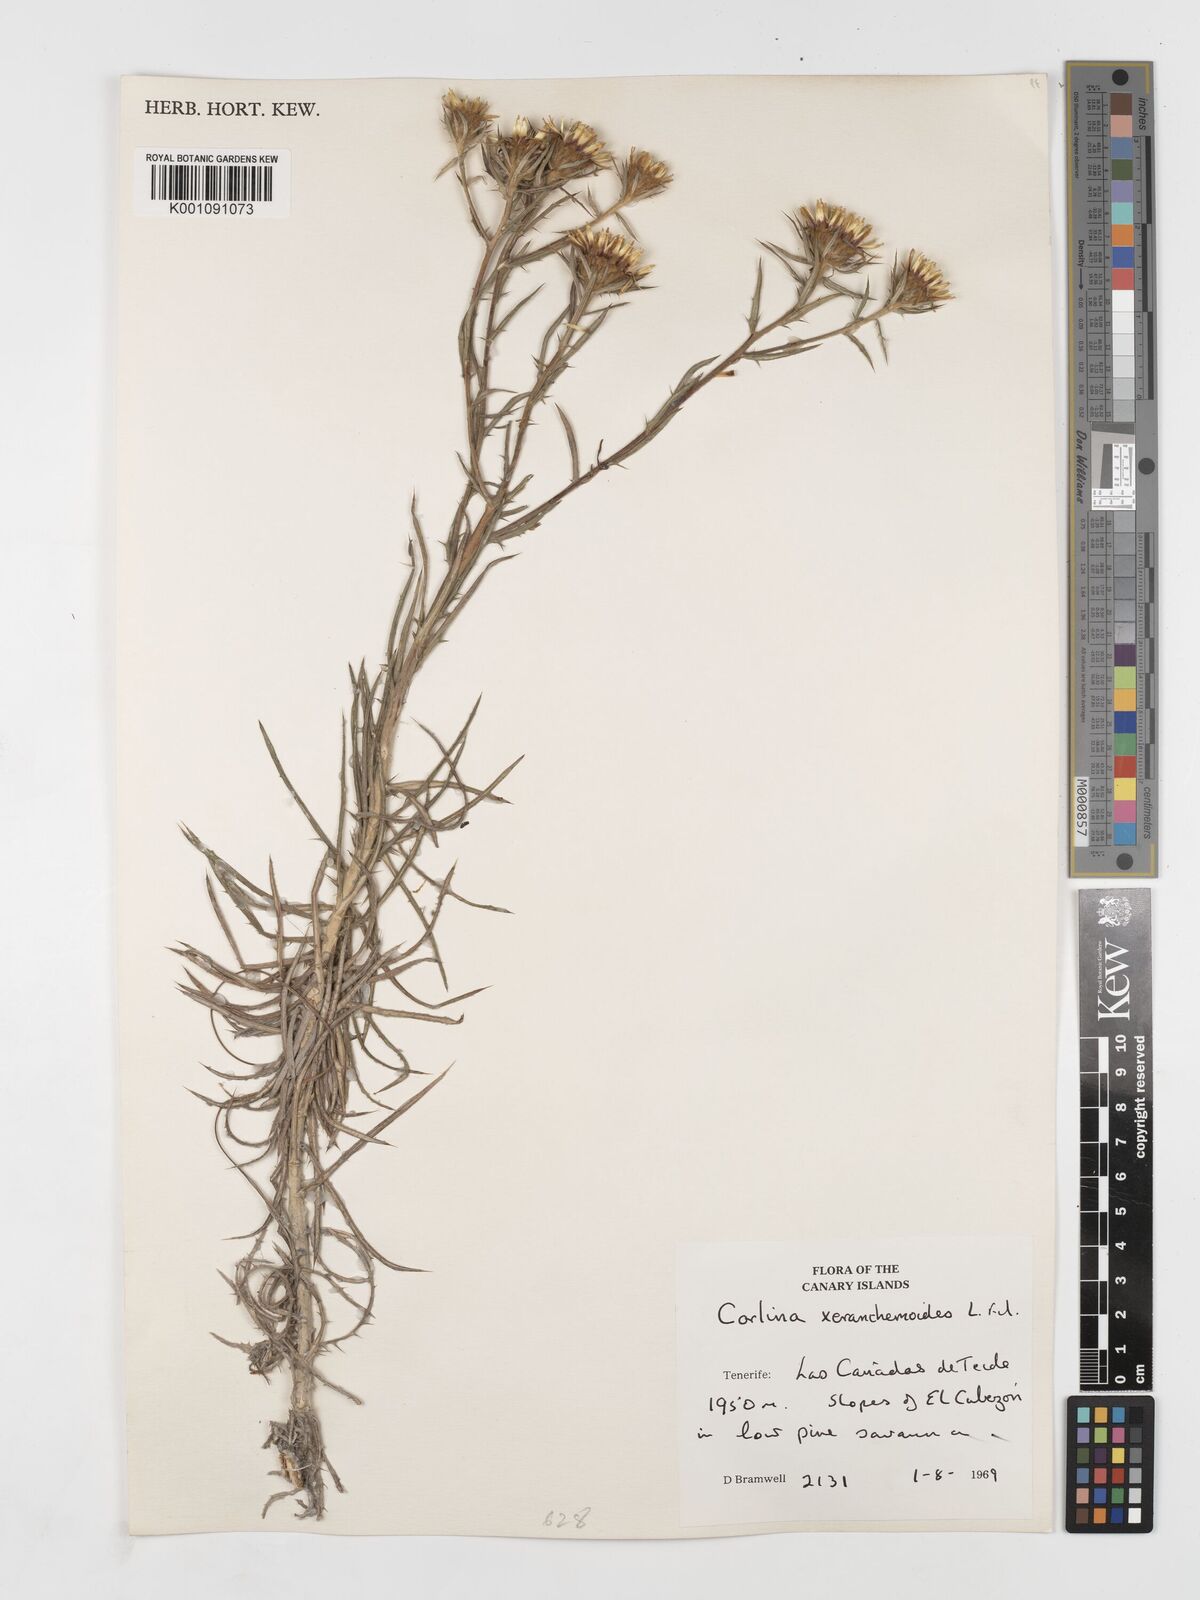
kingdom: Plantae
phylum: Tracheophyta
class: Magnoliopsida
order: Asterales
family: Asteraceae
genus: Carlina
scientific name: Carlina xeranthemoides
